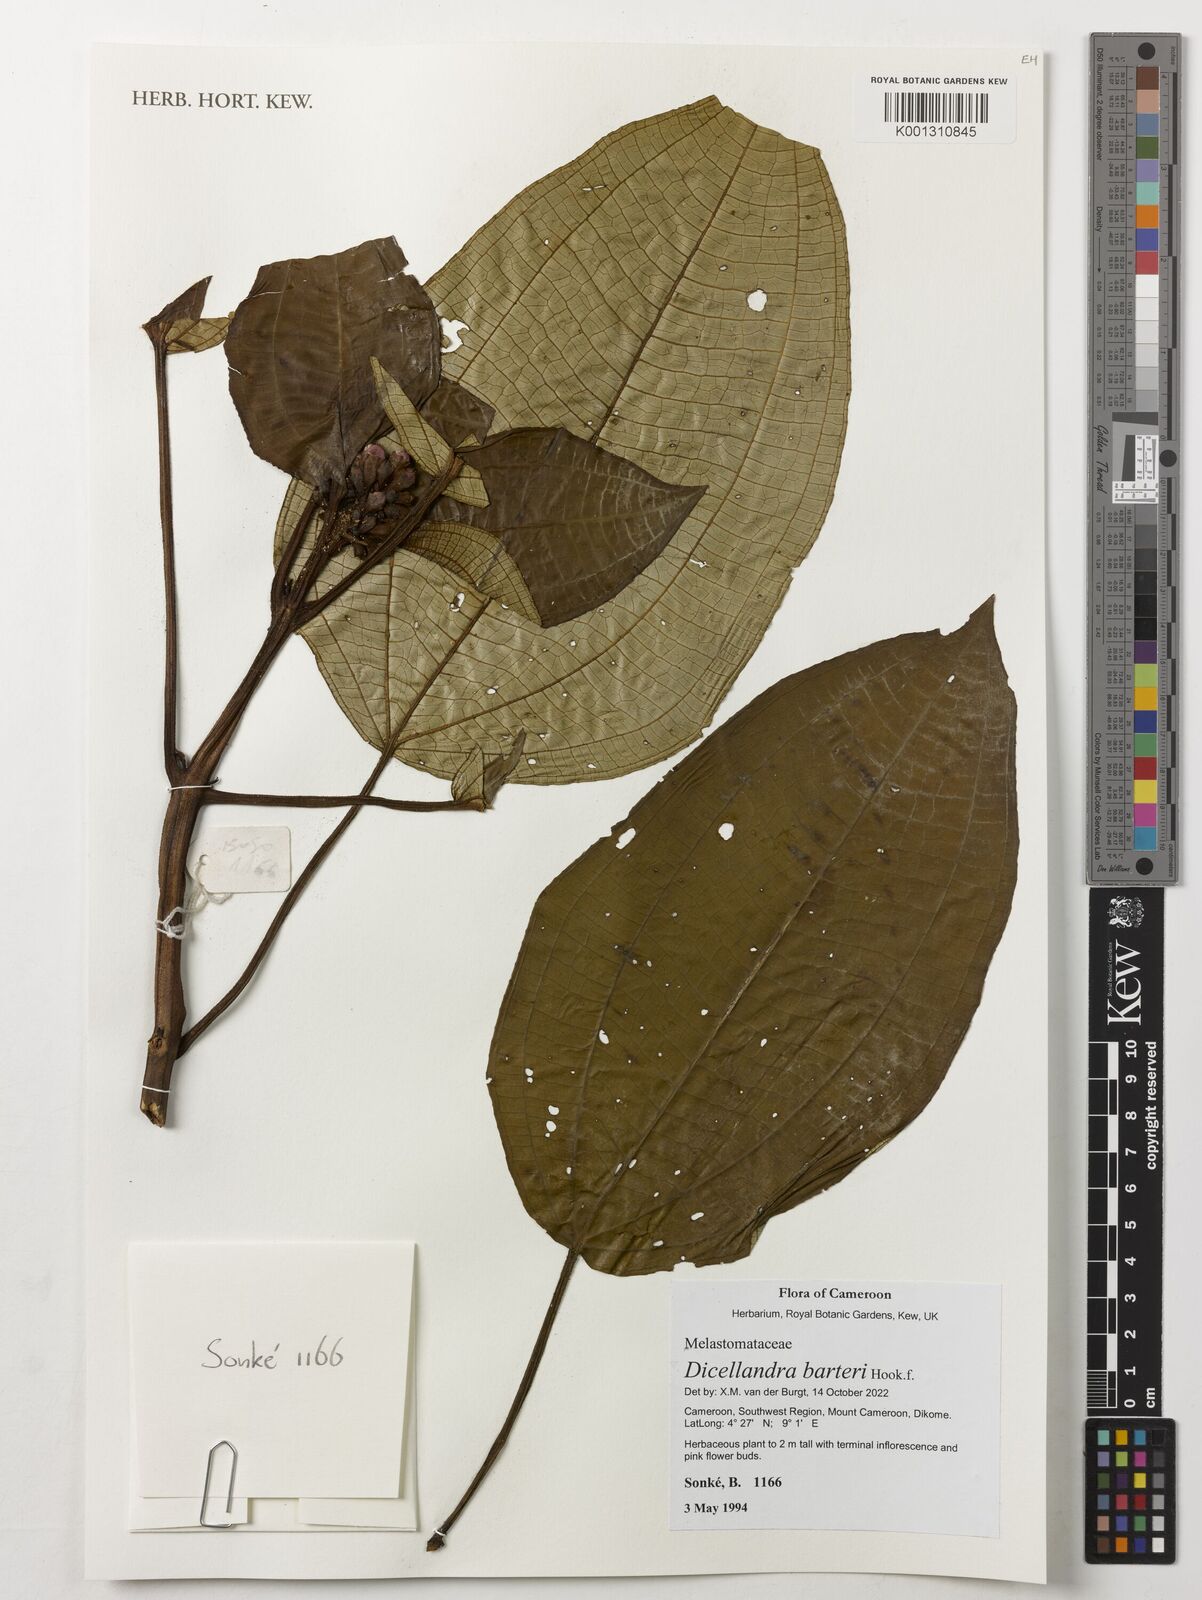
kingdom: Plantae
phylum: Tracheophyta
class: Magnoliopsida
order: Myrtales
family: Melastomataceae
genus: Dicellandra
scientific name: Dicellandra barteri
